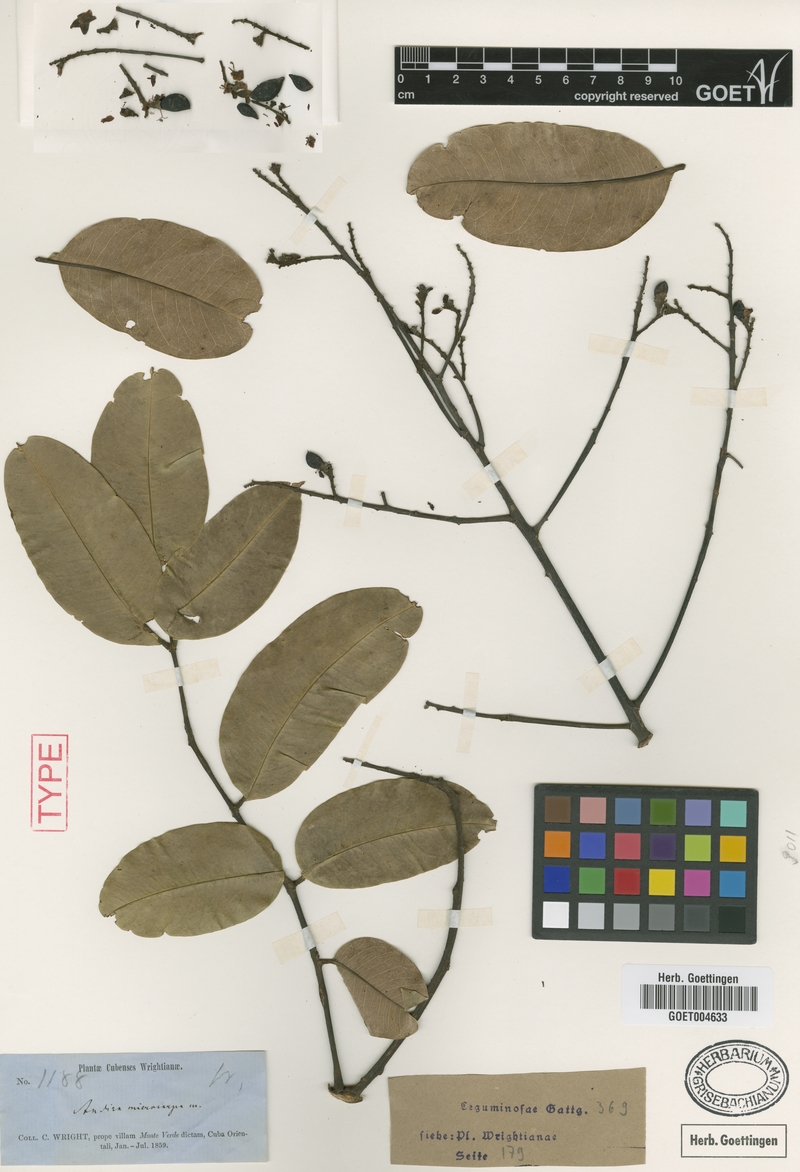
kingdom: Plantae
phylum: Tracheophyta
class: Magnoliopsida
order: Fabales
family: Fabaceae
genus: Andira
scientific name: Andira cubensis
